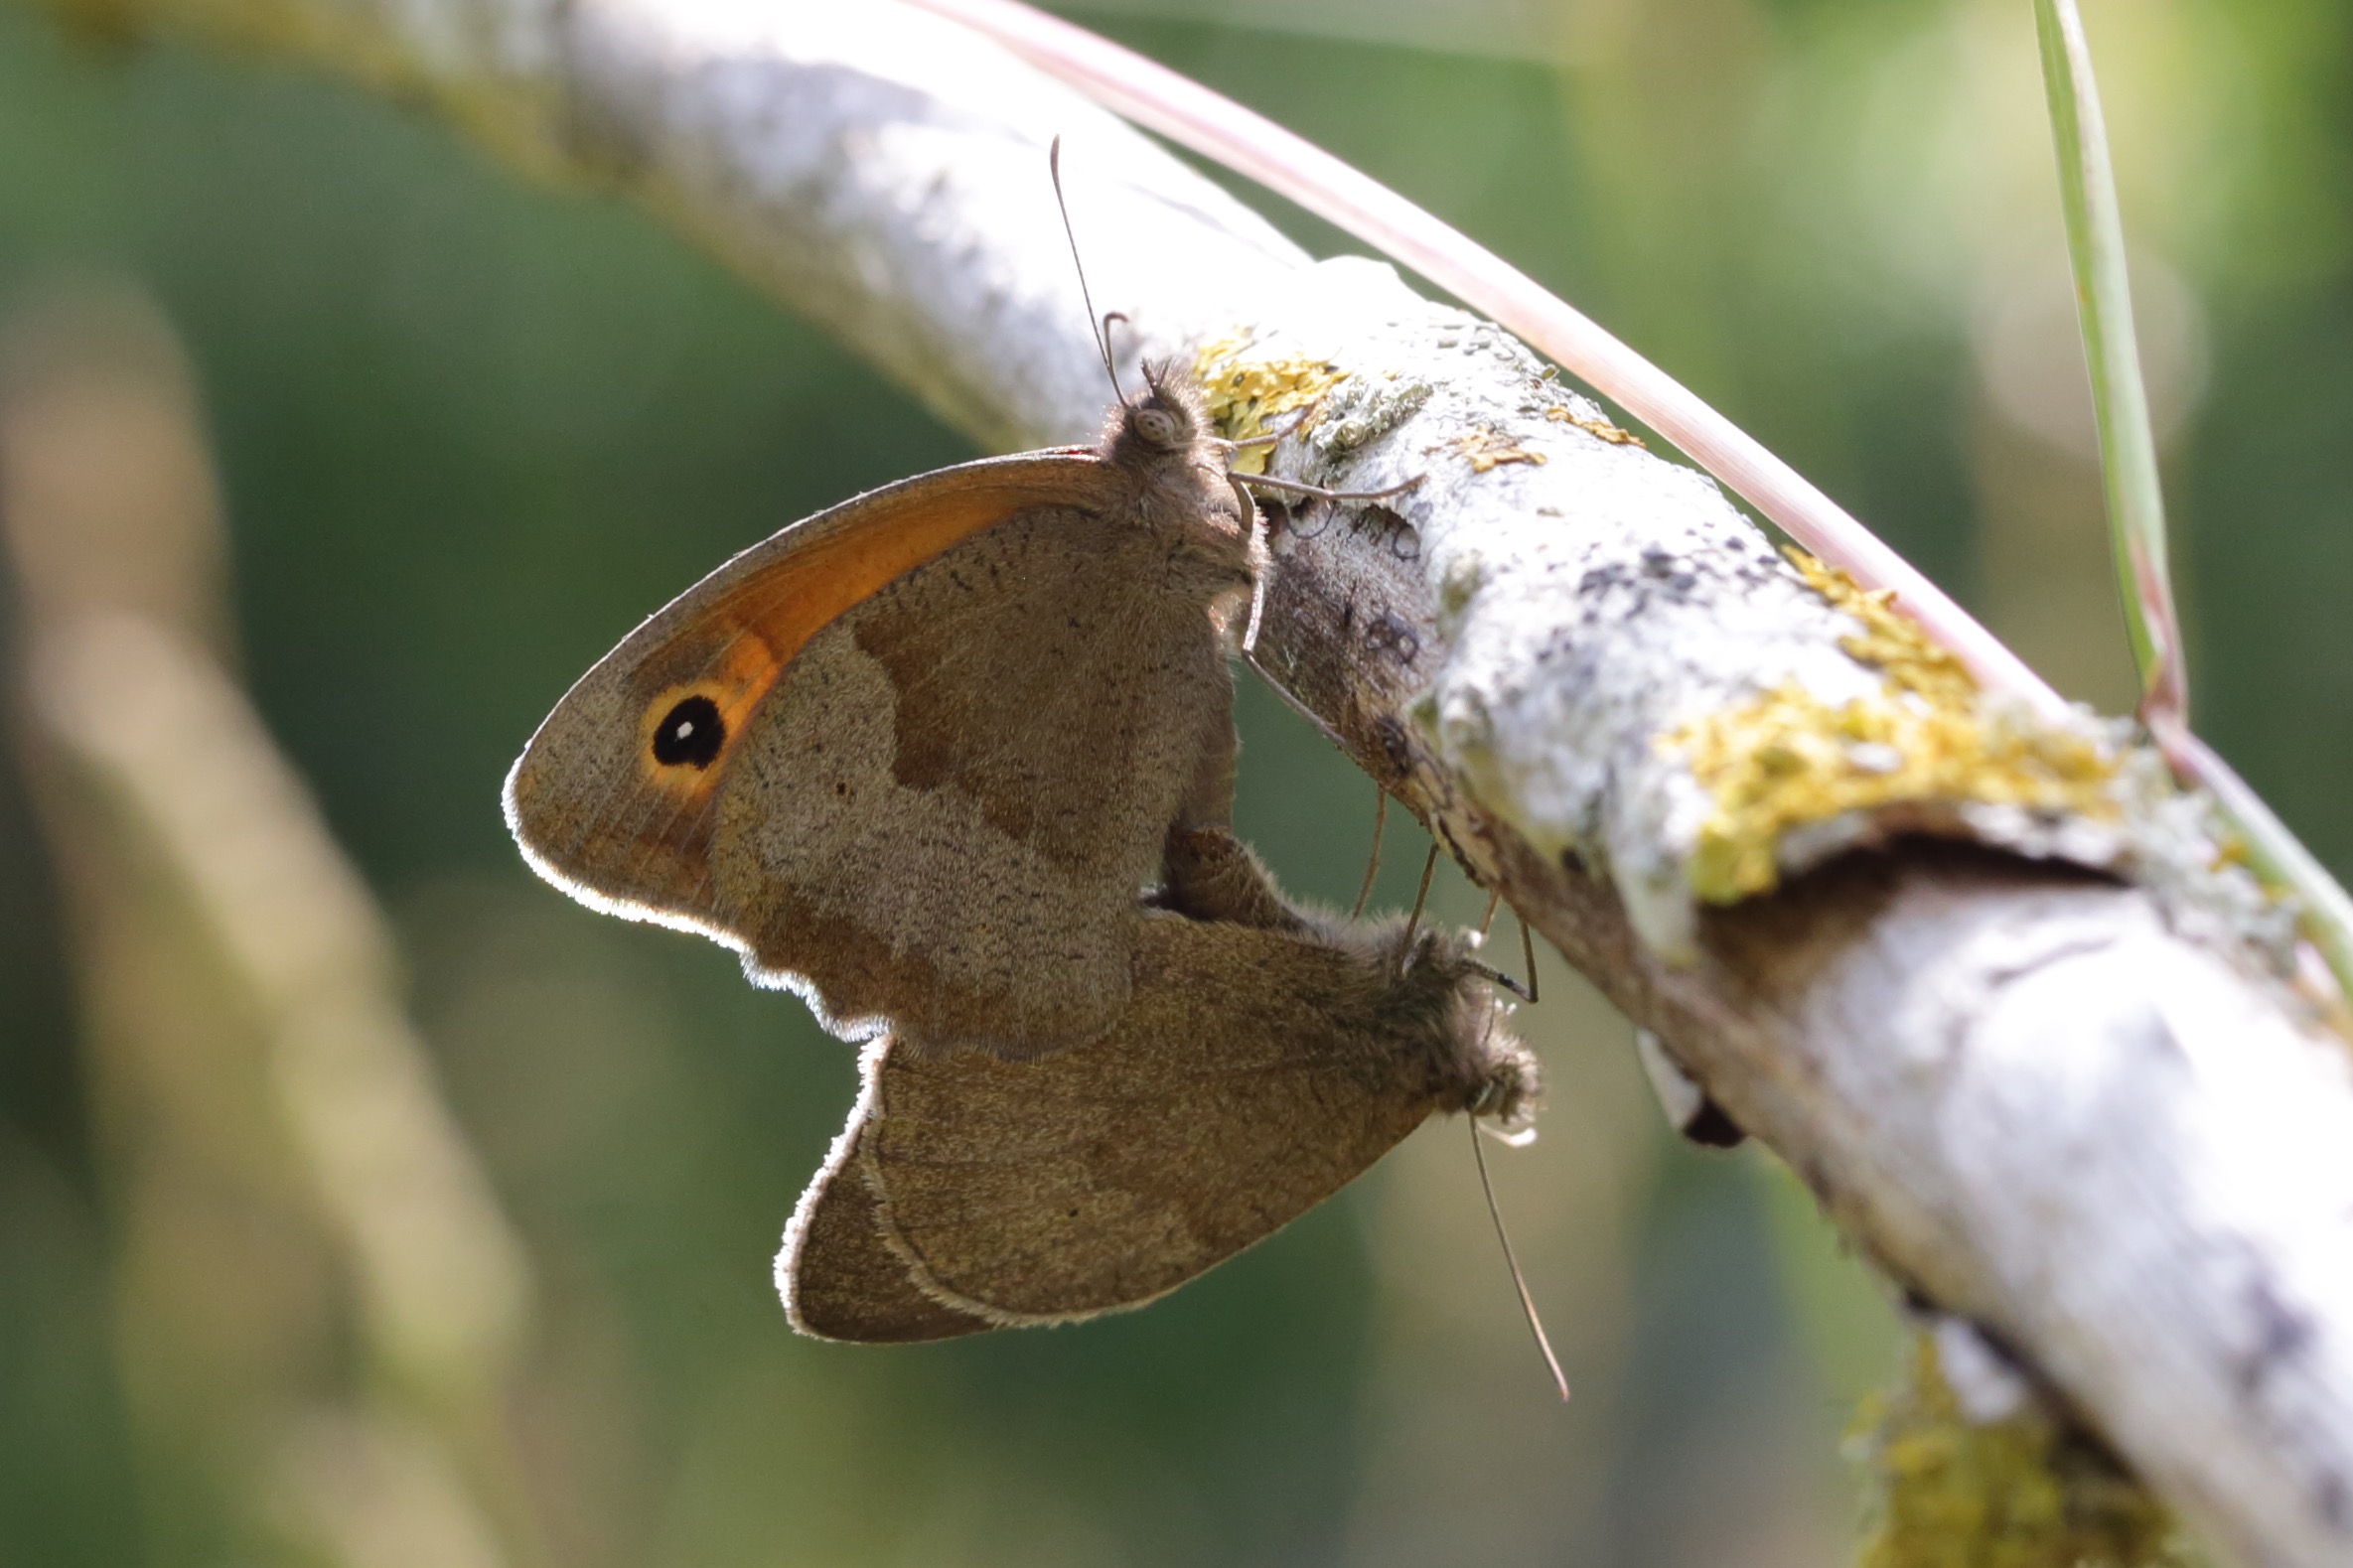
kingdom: Animalia
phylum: Arthropoda
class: Insecta
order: Lepidoptera
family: Nymphalidae
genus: Maniola
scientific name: Maniola jurtina
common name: Græsrandøje
